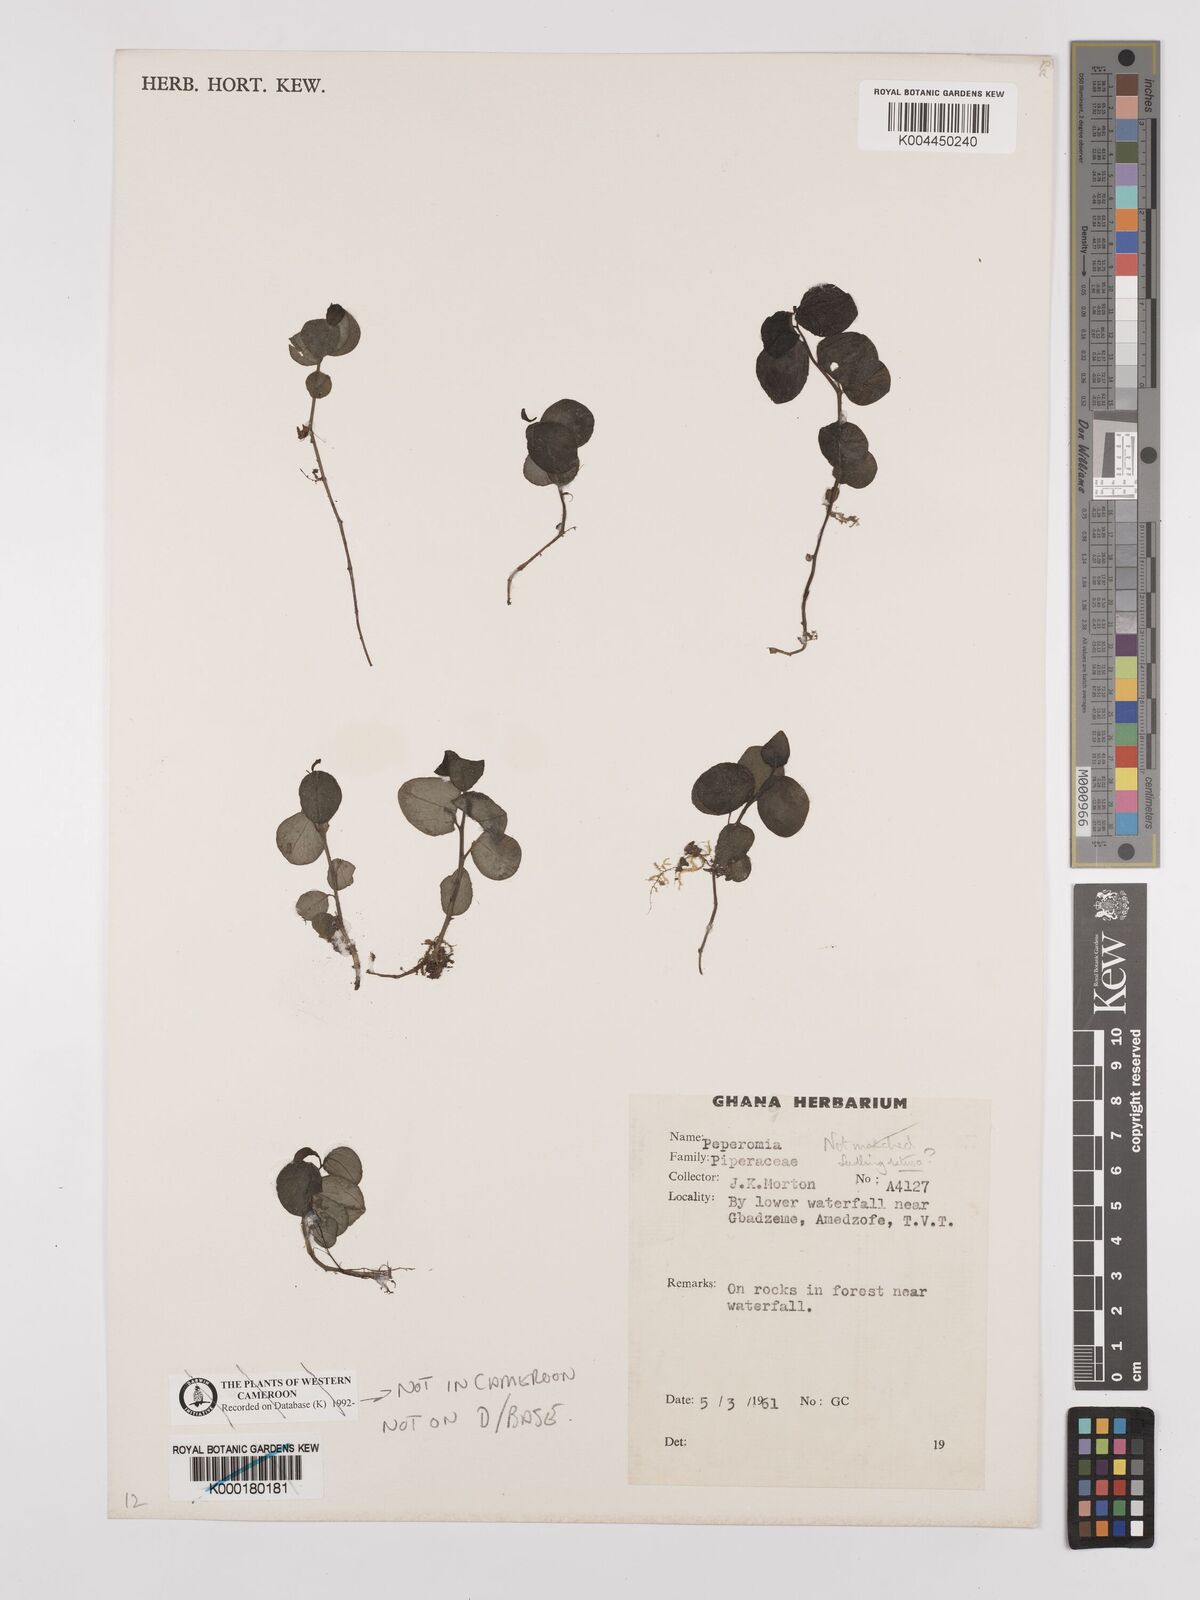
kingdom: Plantae
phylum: Tracheophyta
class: Magnoliopsida
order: Piperales
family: Piperaceae
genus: Peperomia
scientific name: Peperomia
